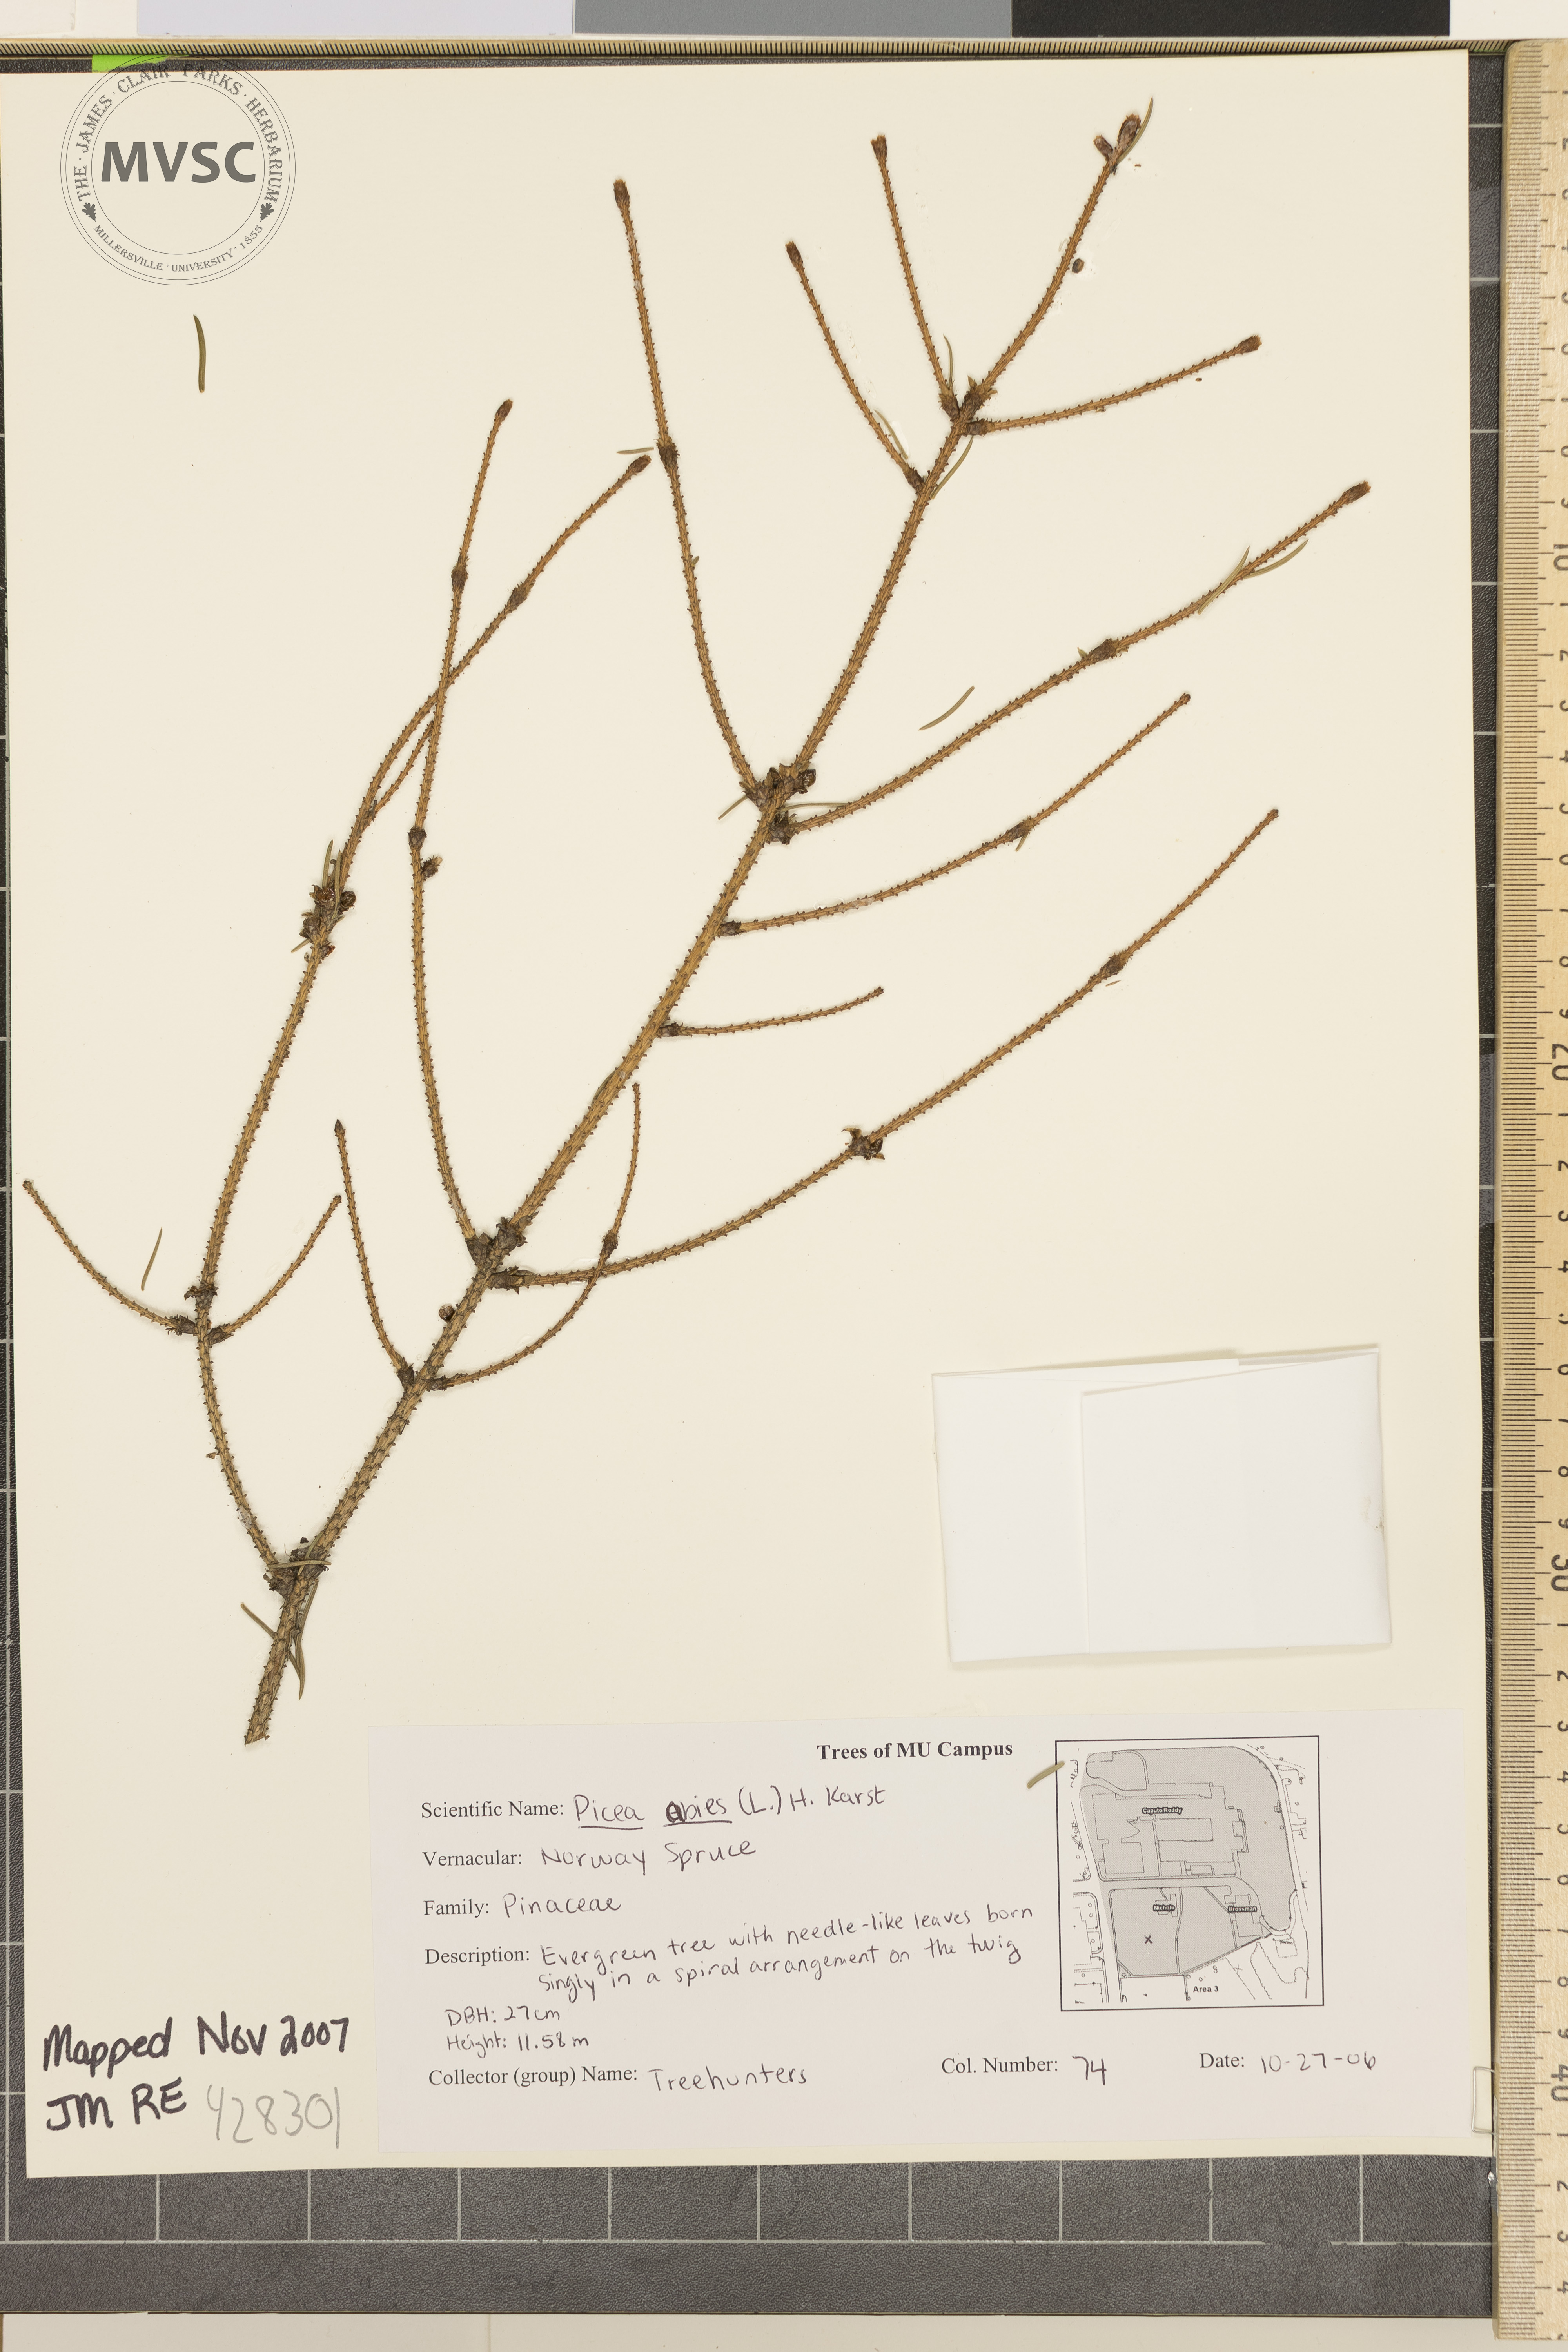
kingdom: Plantae
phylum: Tracheophyta
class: Pinopsida
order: Pinales
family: Pinaceae
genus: Picea
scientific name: Picea abies
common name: Norway Spruce
